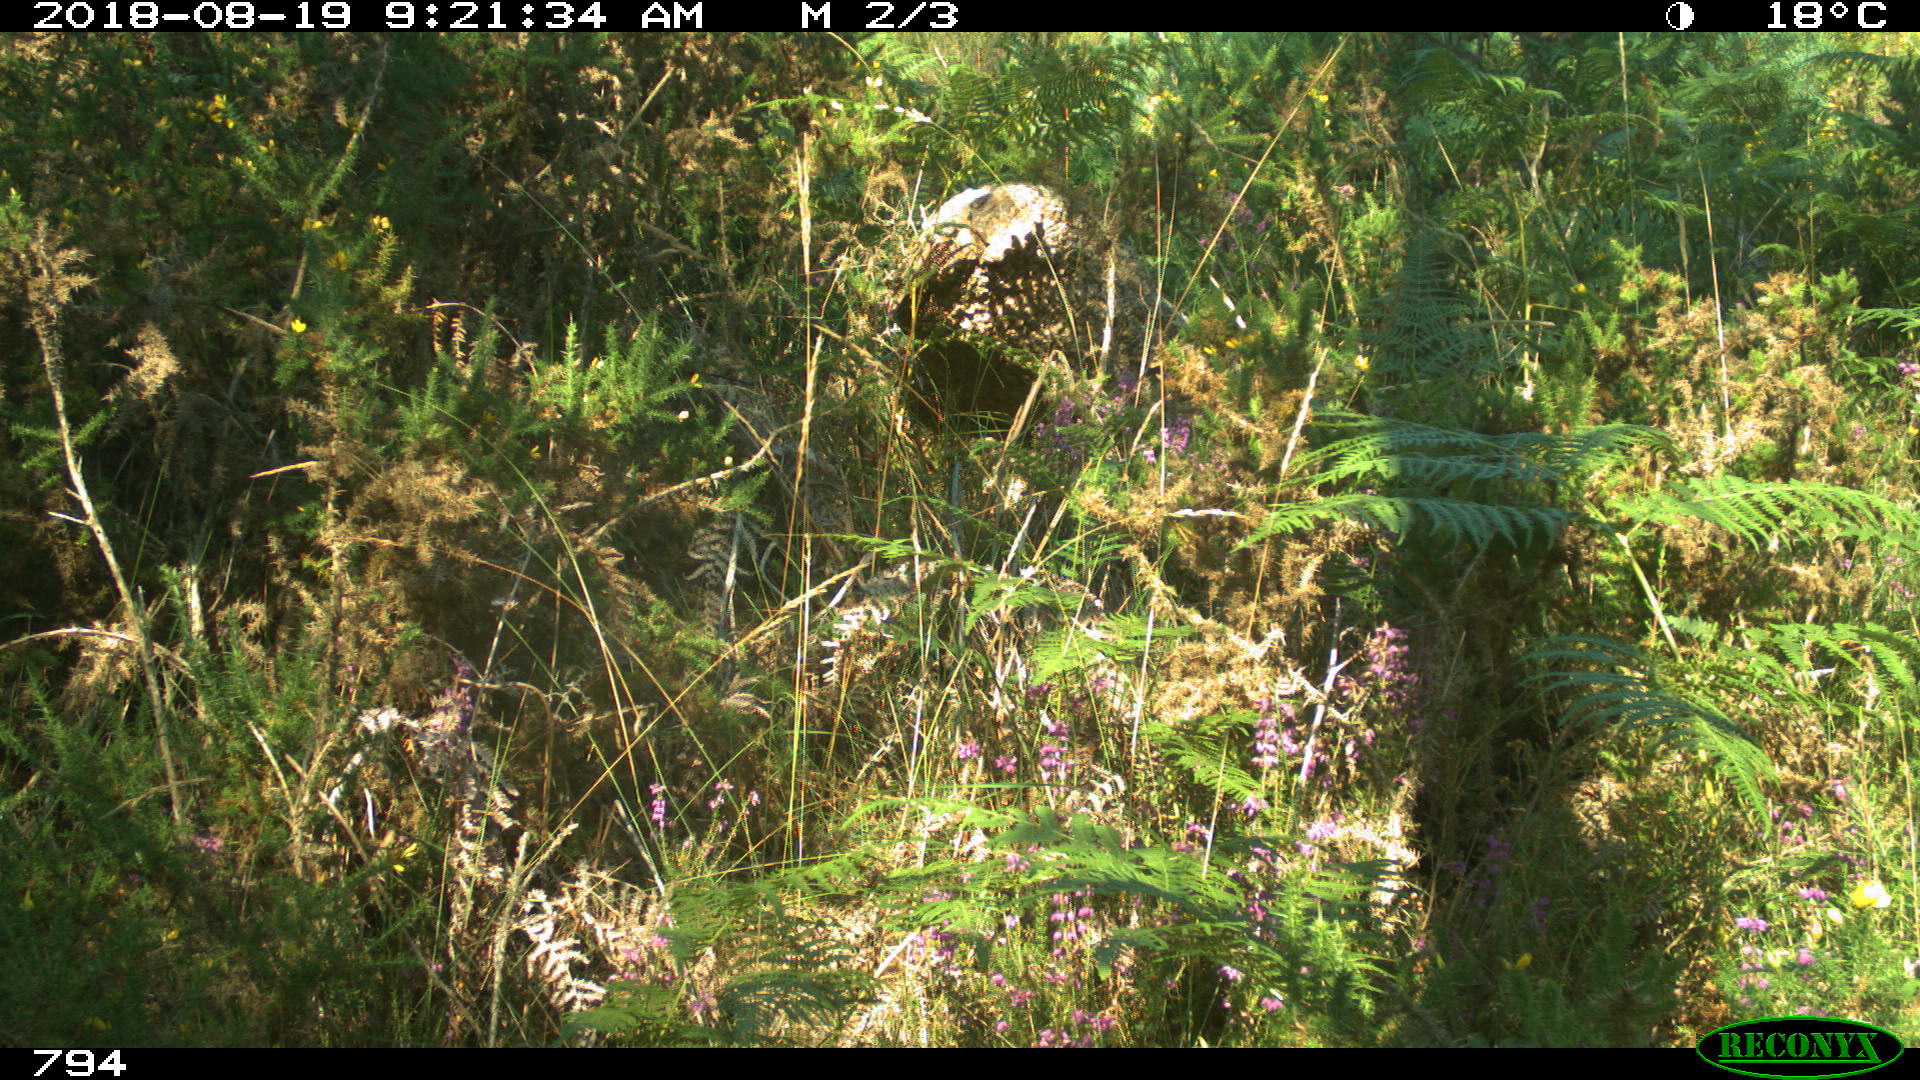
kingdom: Animalia
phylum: Chordata
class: Mammalia
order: Artiodactyla
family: Bovidae
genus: Bos
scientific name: Bos taurus
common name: Domesticated cattle
